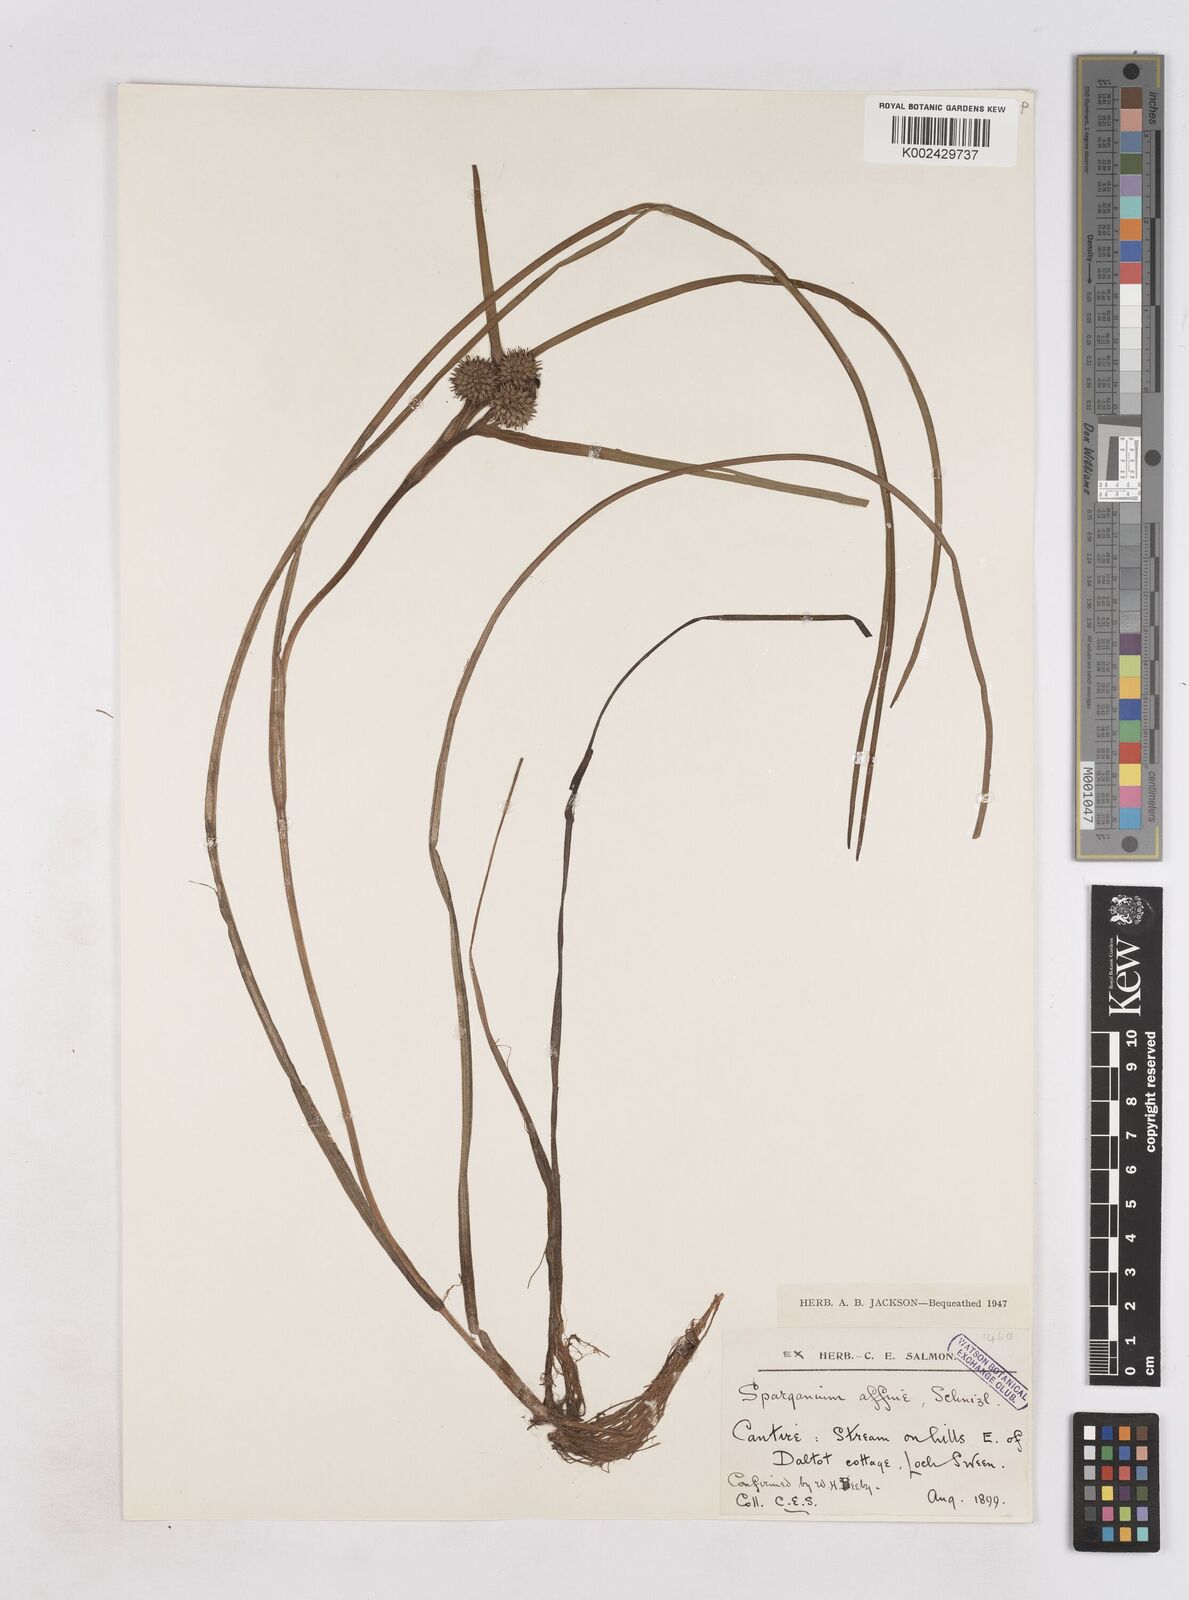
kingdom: Plantae
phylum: Tracheophyta
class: Liliopsida
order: Poales
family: Typhaceae
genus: Sparganium
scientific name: Sparganium angustifolium
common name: Floating bur-reed
